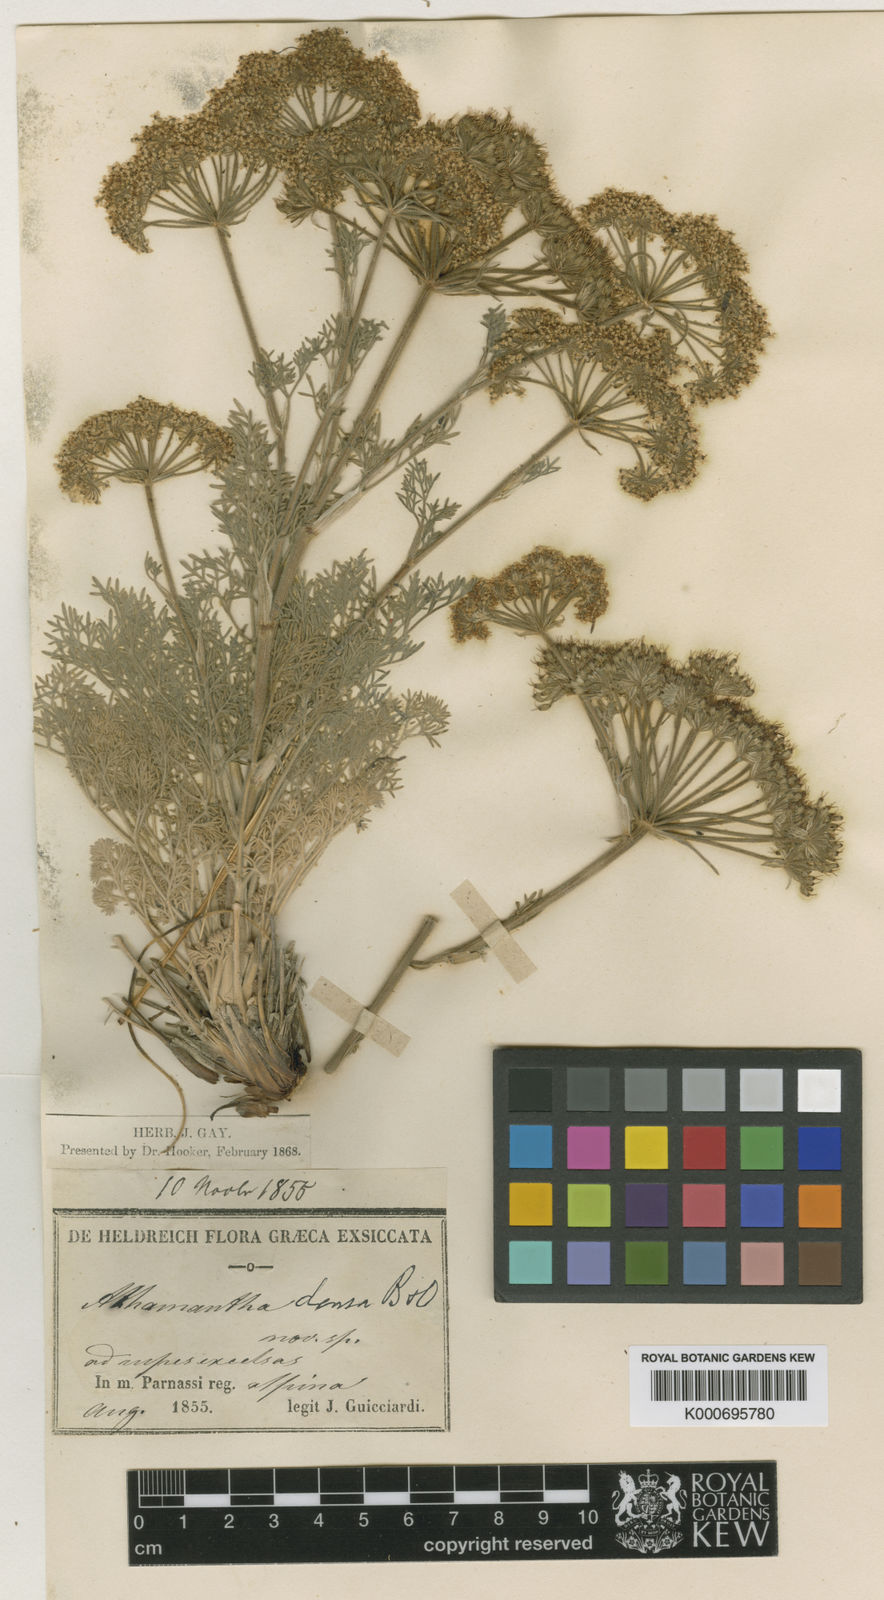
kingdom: Plantae
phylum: Tracheophyta
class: Magnoliopsida
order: Apiales
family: Apiaceae
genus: Athamanta
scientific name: Athamanta densa
